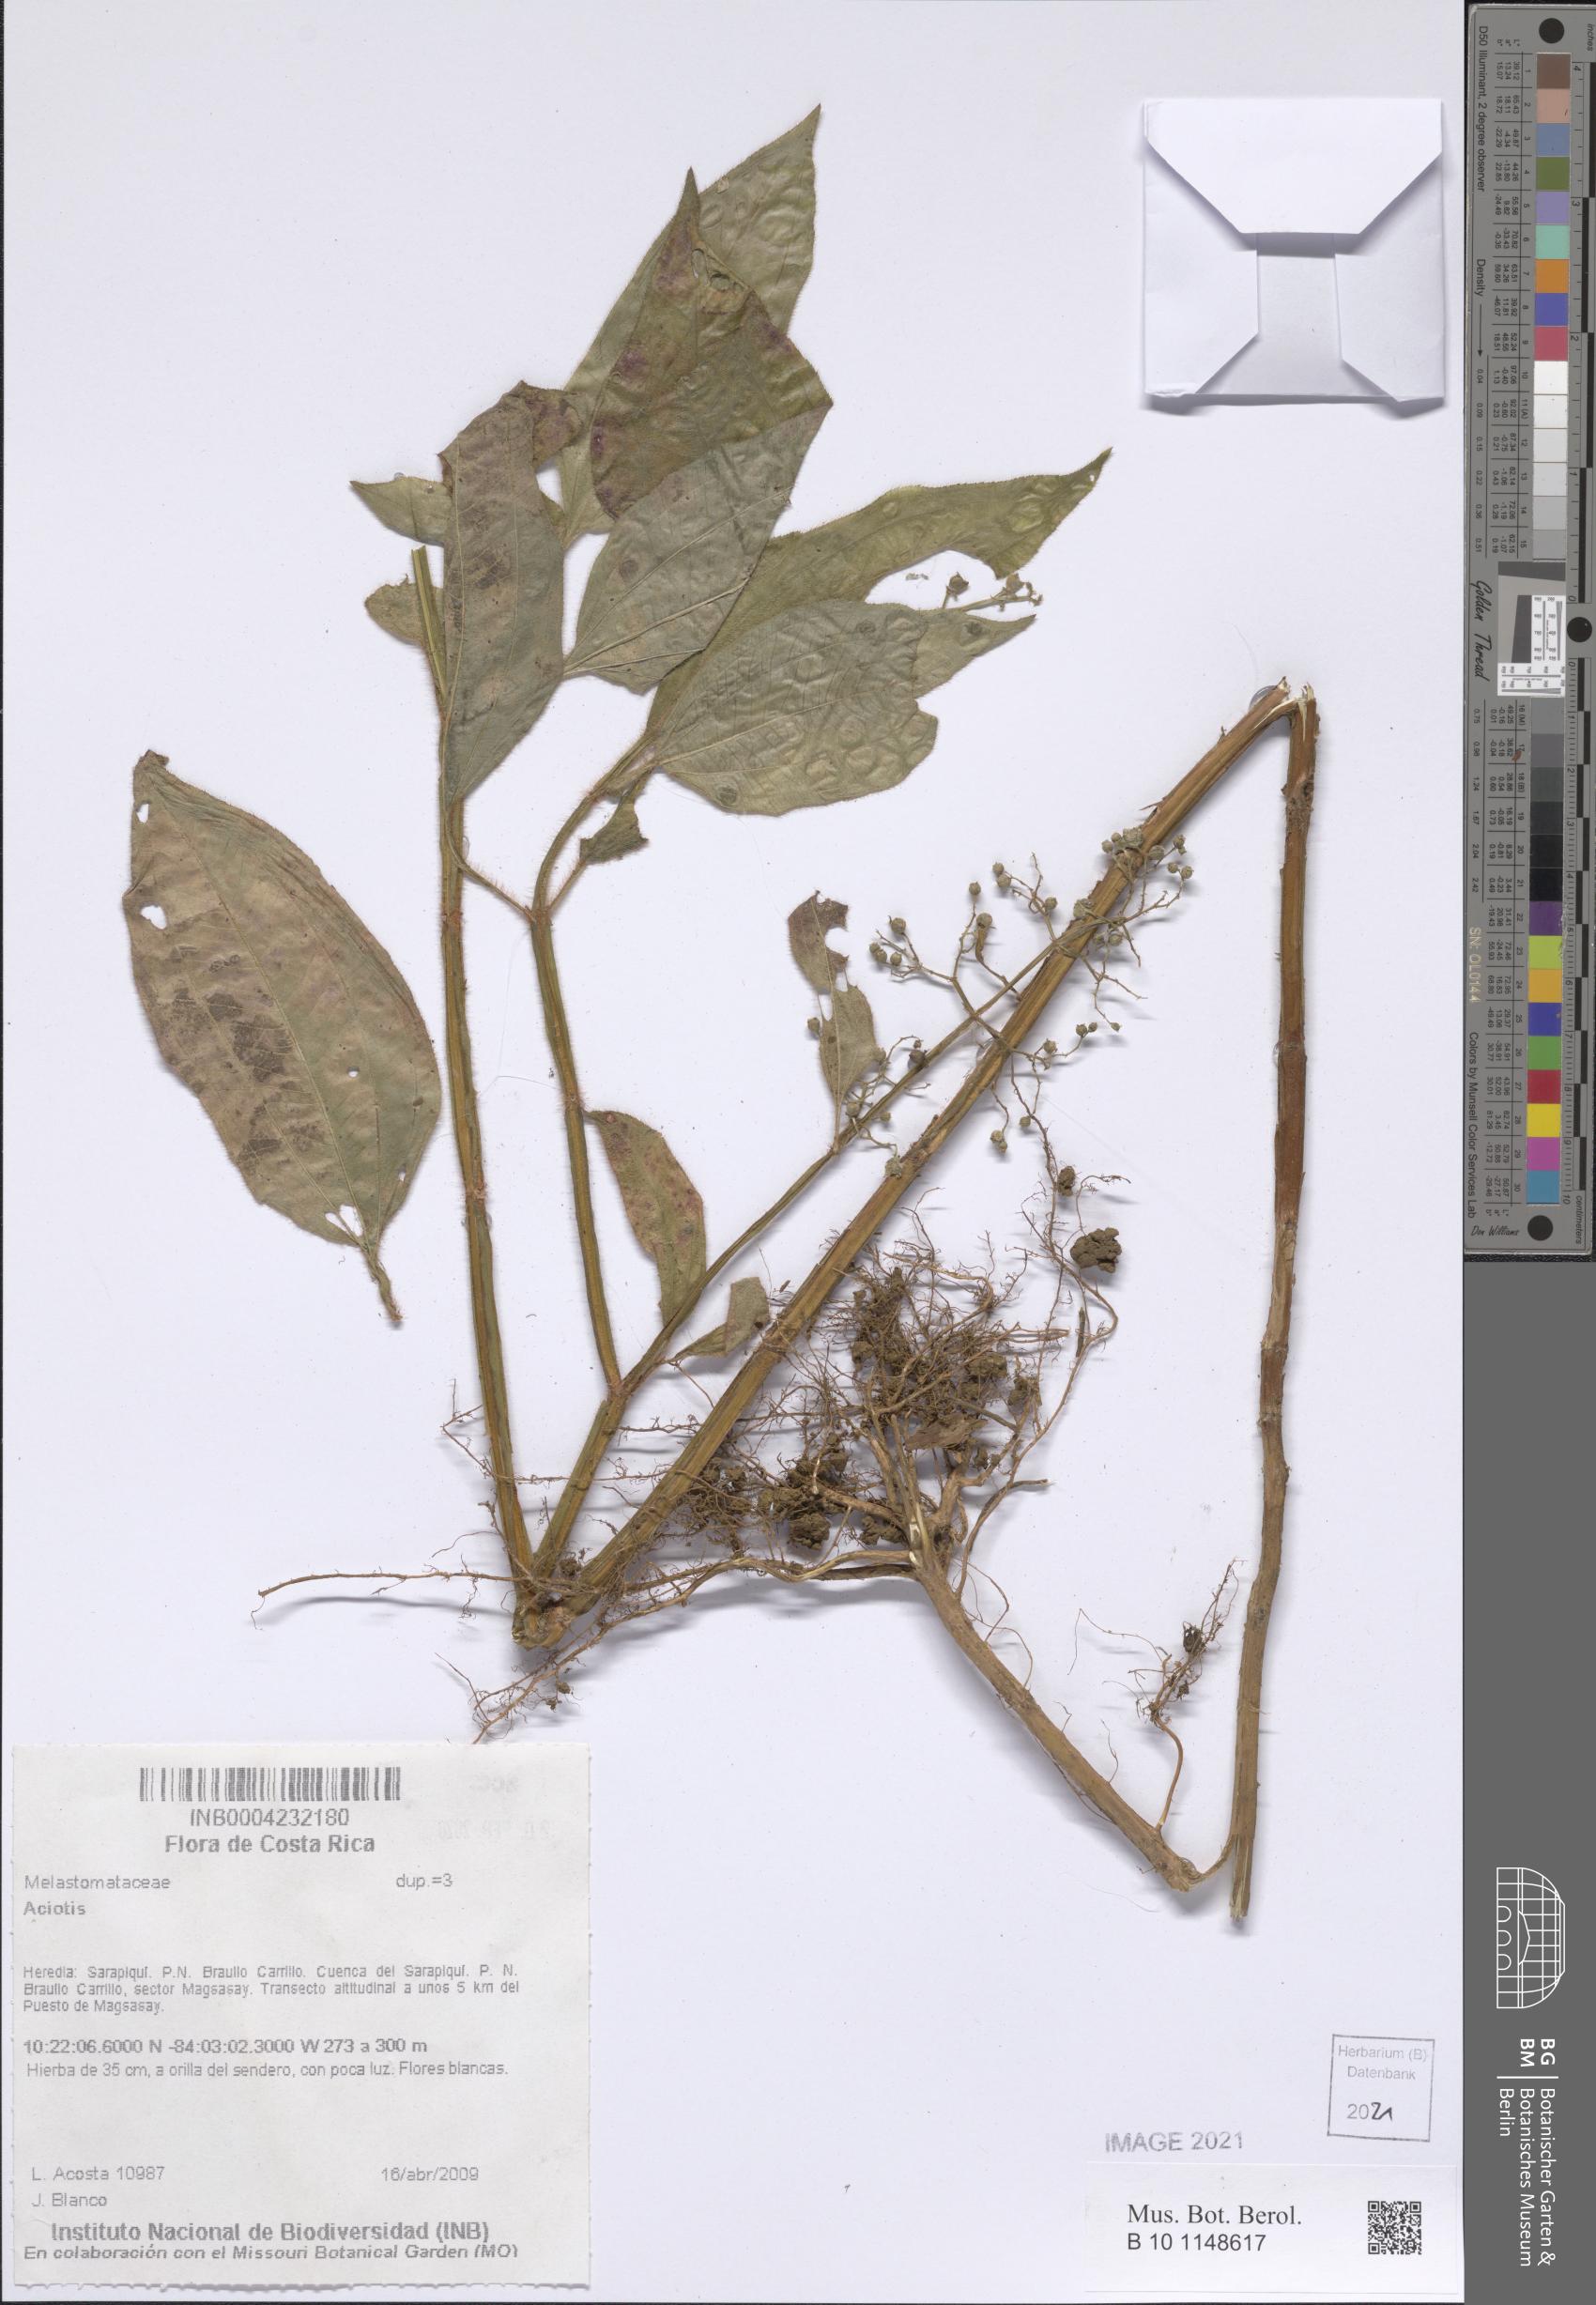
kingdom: Plantae
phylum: Tracheophyta
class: Magnoliopsida
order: Myrtales
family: Melastomataceae
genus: Aciotis
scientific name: Aciotis
